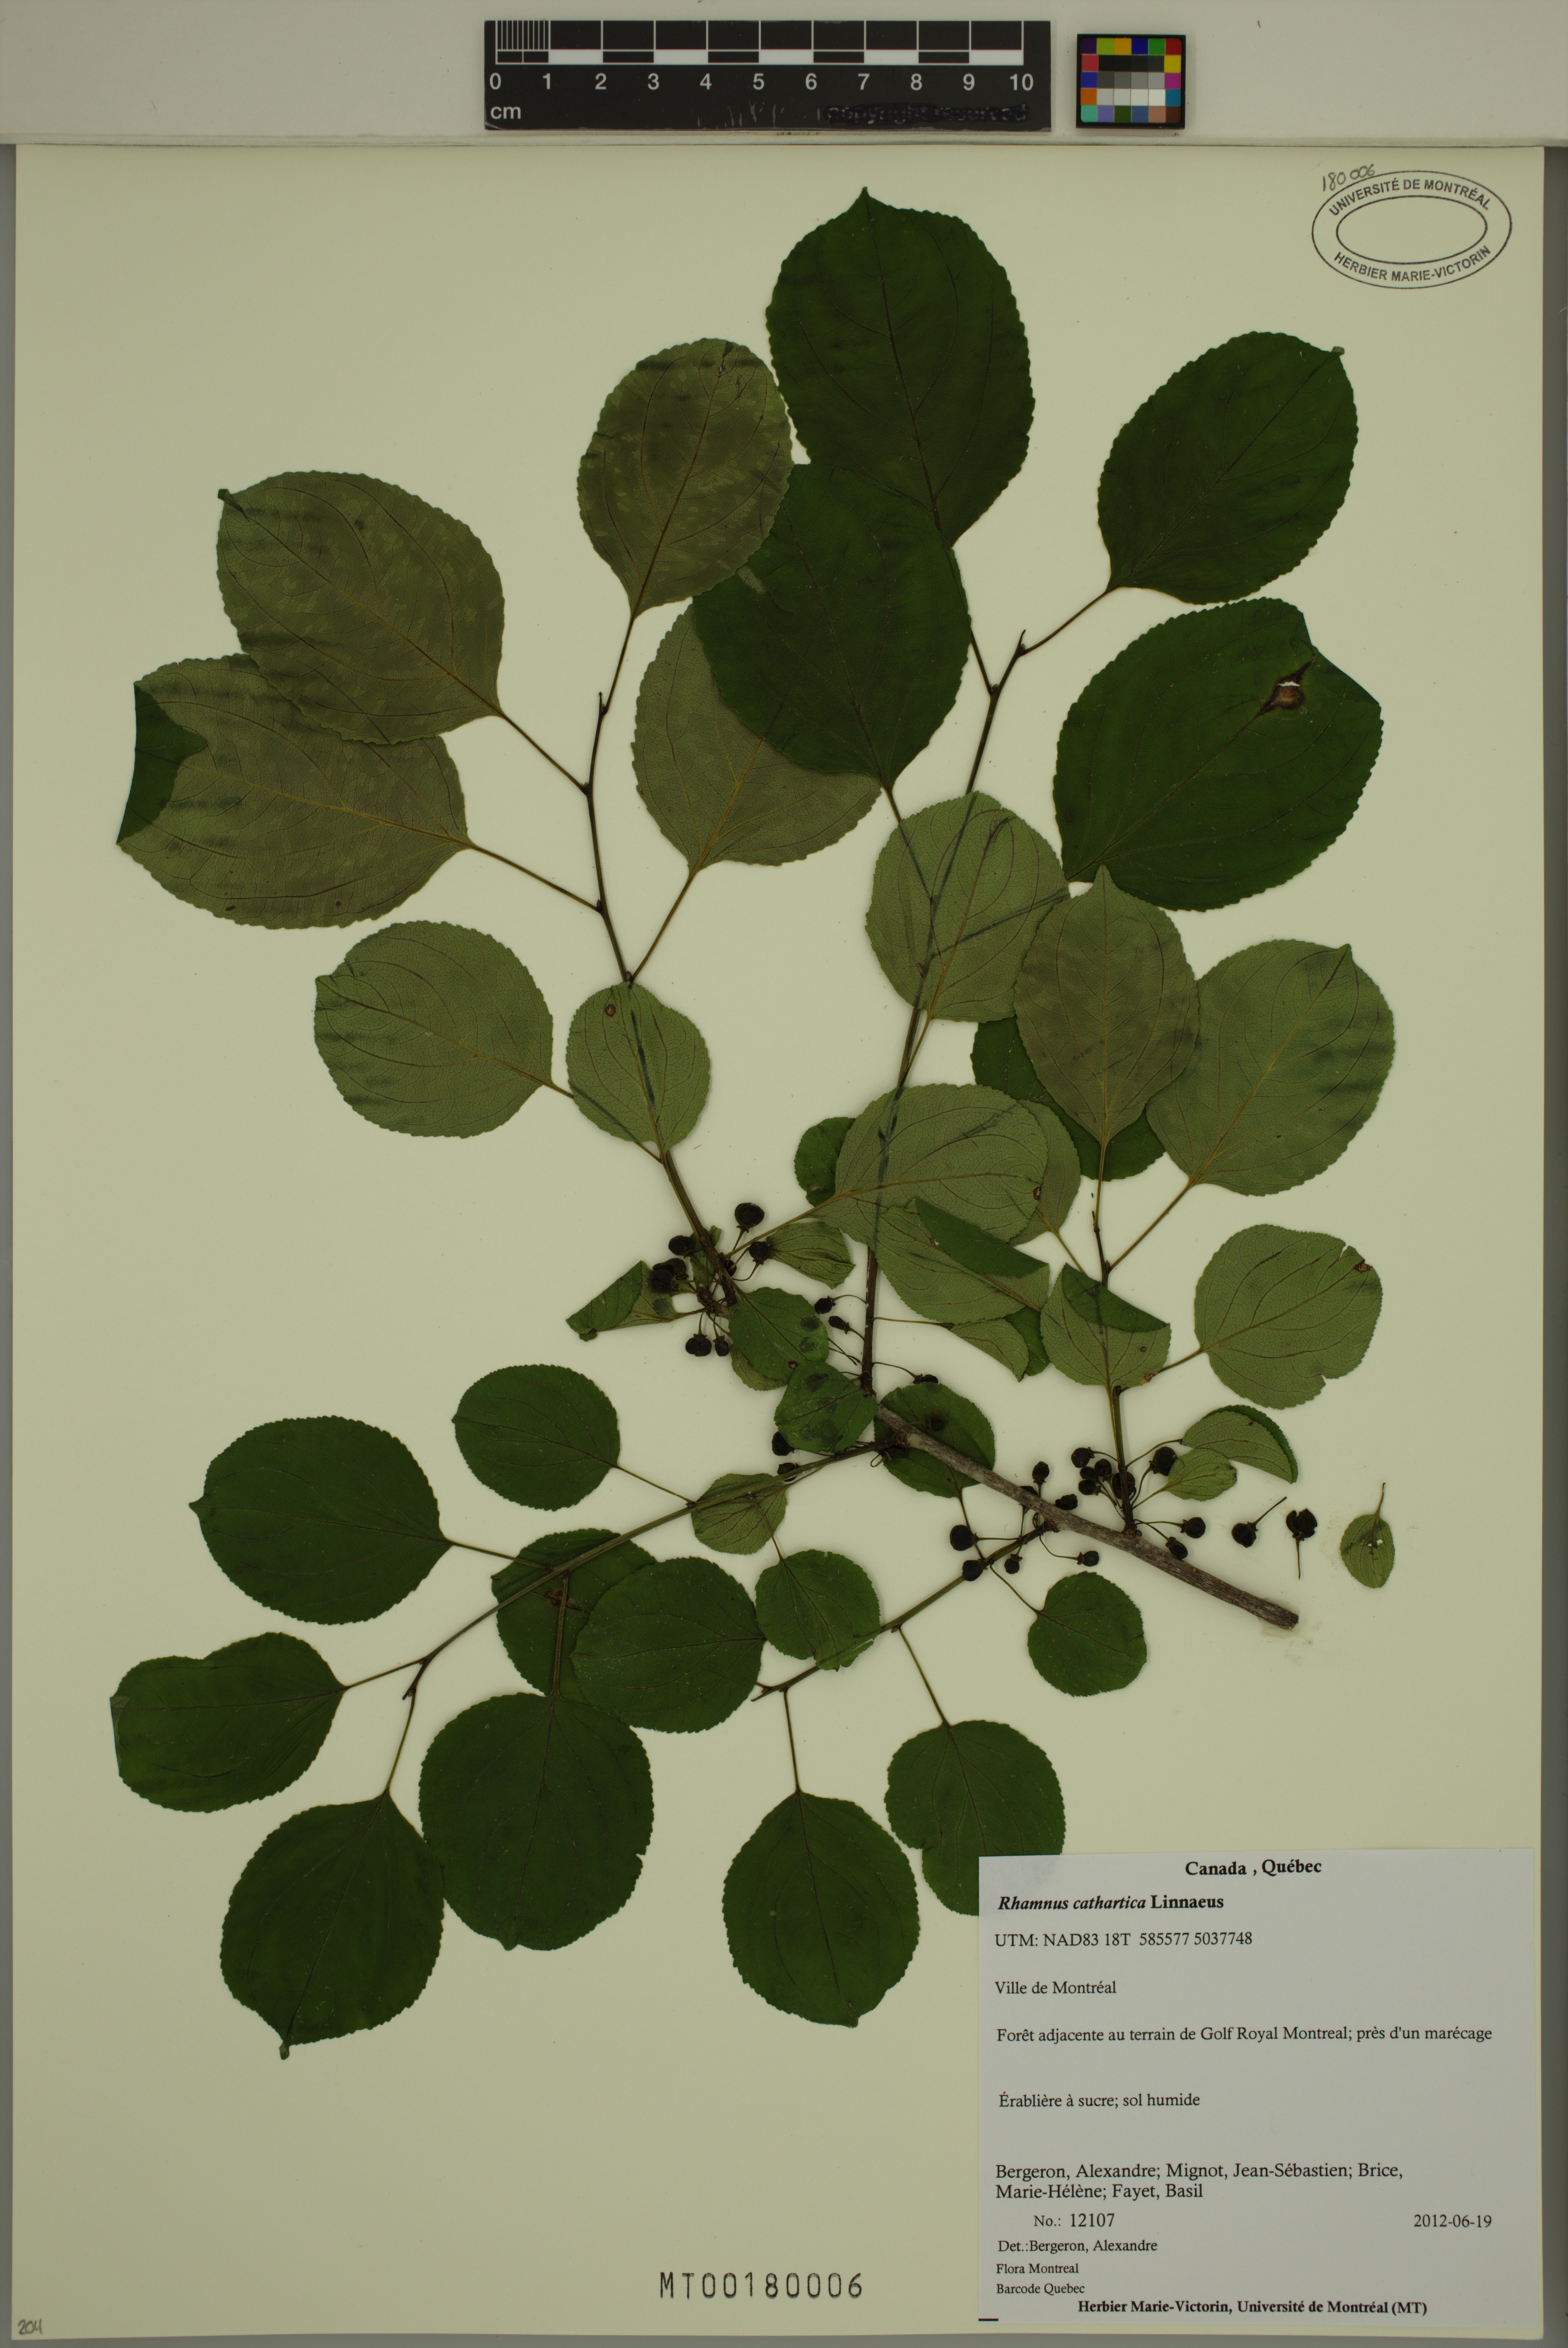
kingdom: Plantae
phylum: Tracheophyta
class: Magnoliopsida
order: Rosales
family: Rhamnaceae
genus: Rhamnus
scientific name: Rhamnus cathartica
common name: Common buckthorn
